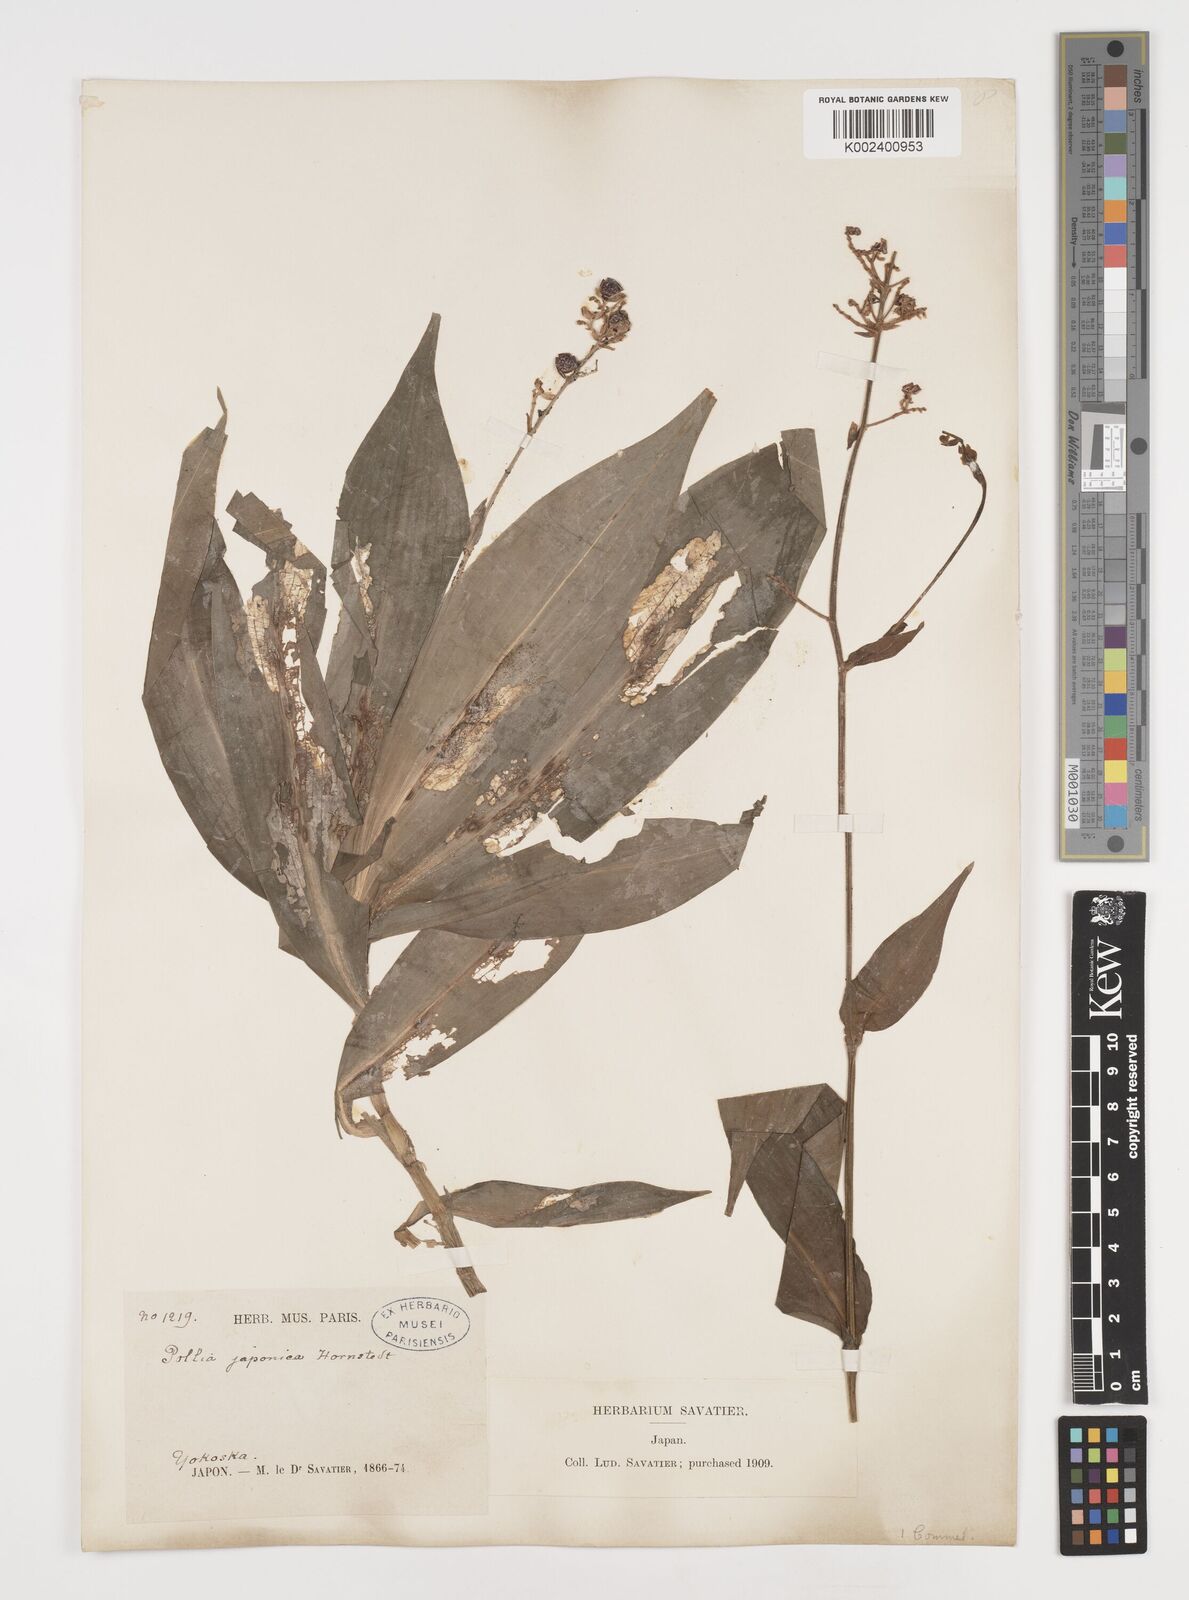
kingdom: Plantae
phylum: Tracheophyta
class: Liliopsida
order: Commelinales
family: Commelinaceae
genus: Pollia
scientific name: Pollia japonica
